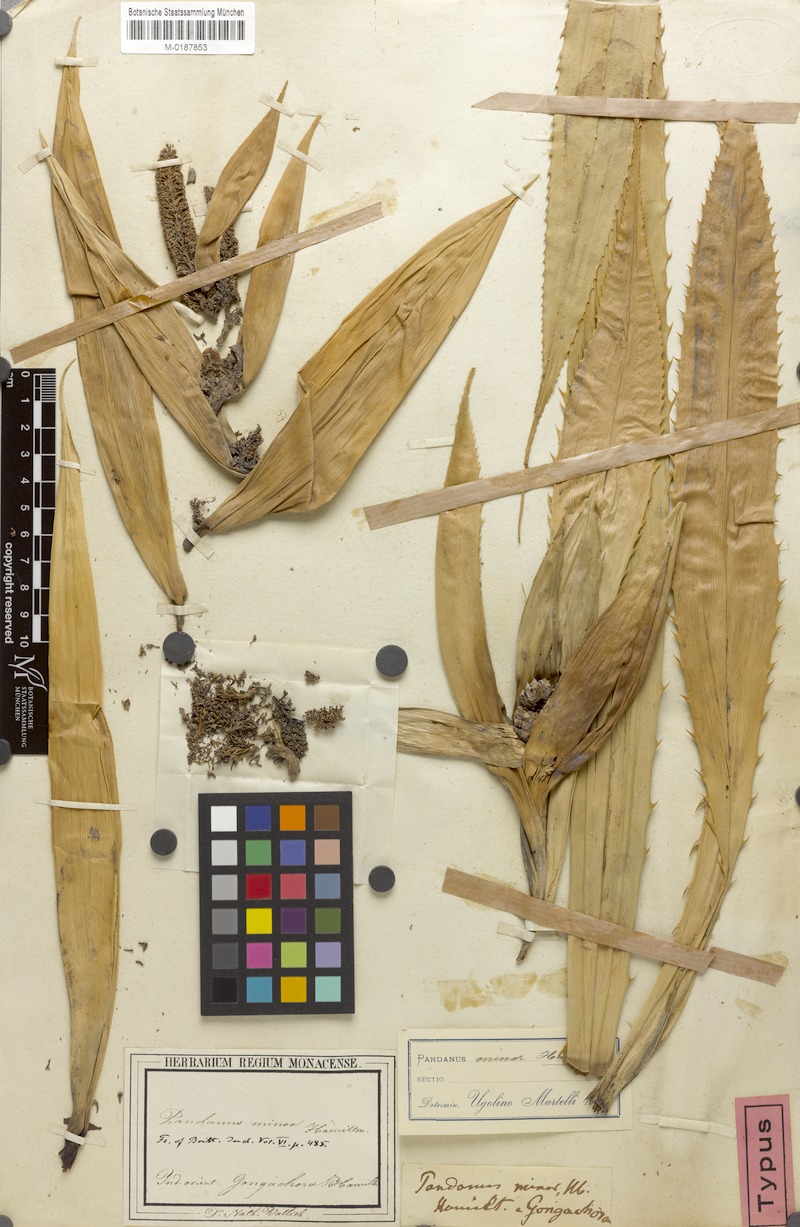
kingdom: Plantae
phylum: Tracheophyta
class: Liliopsida
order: Pandanales
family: Pandanaceae
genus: Pandanus
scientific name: Pandanus unguifer
